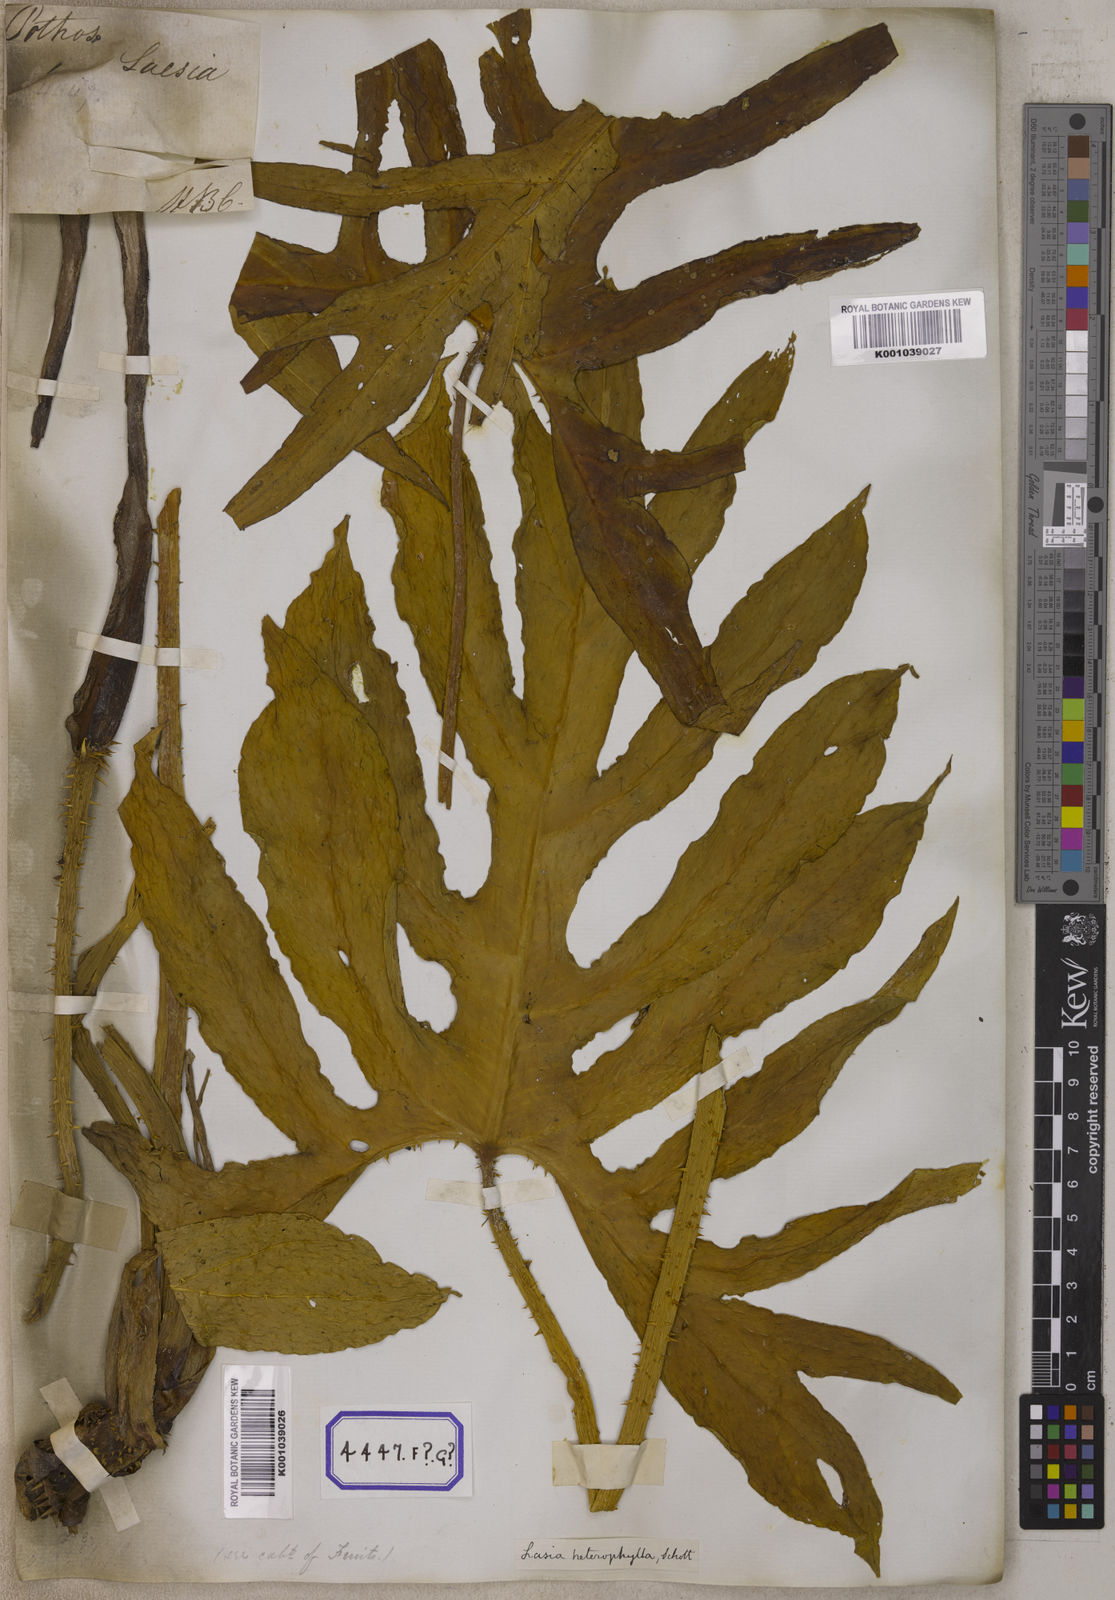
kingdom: Plantae
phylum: Tracheophyta
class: Liliopsida
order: Alismatales
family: Araceae
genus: Lasia
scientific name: Lasia spinosa
